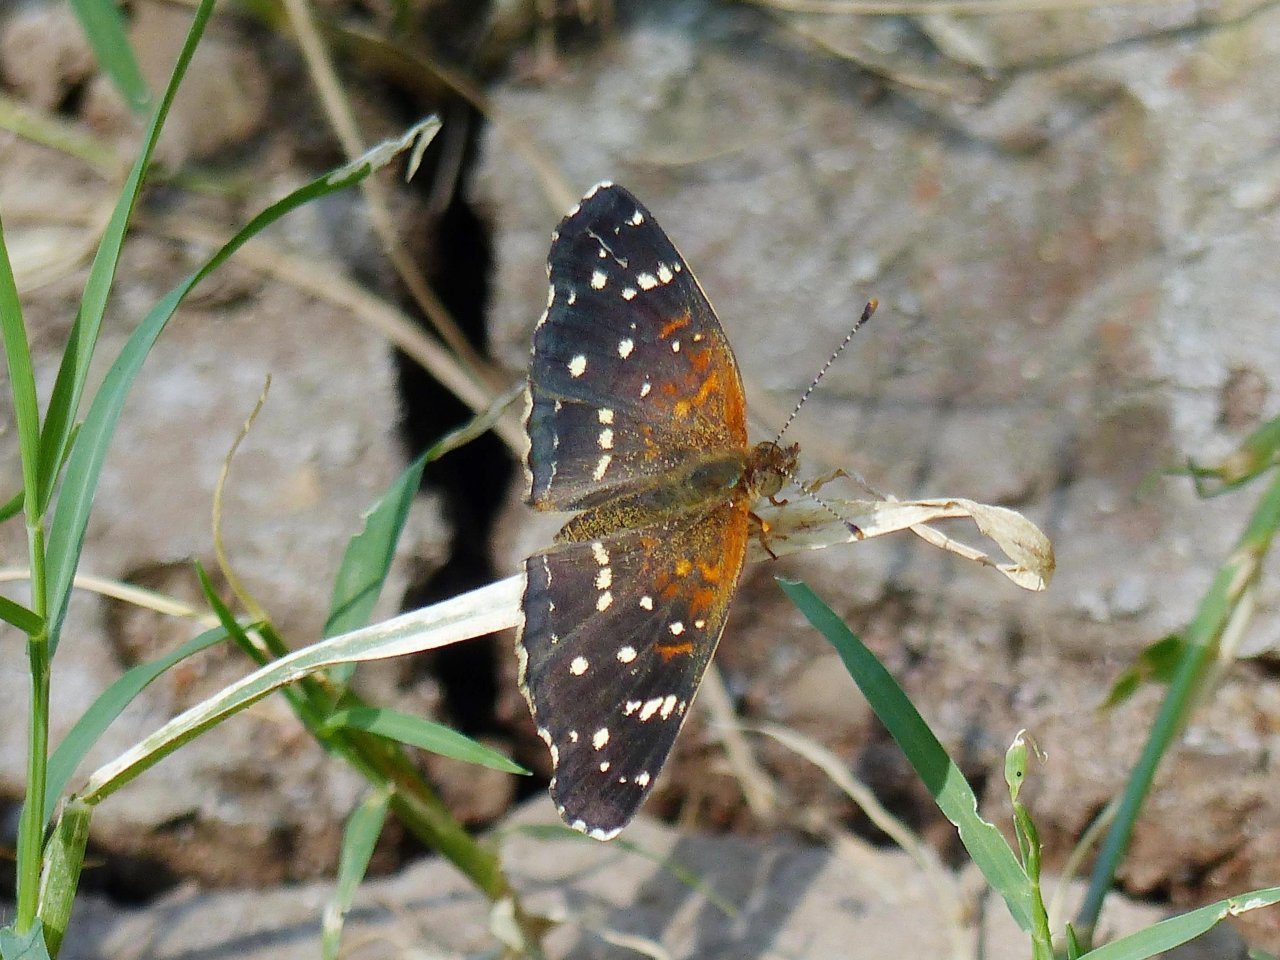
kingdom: Animalia
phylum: Arthropoda
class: Insecta
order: Lepidoptera
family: Nymphalidae
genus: Anthanassa
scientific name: Anthanassa texana
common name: Texan Crescent
